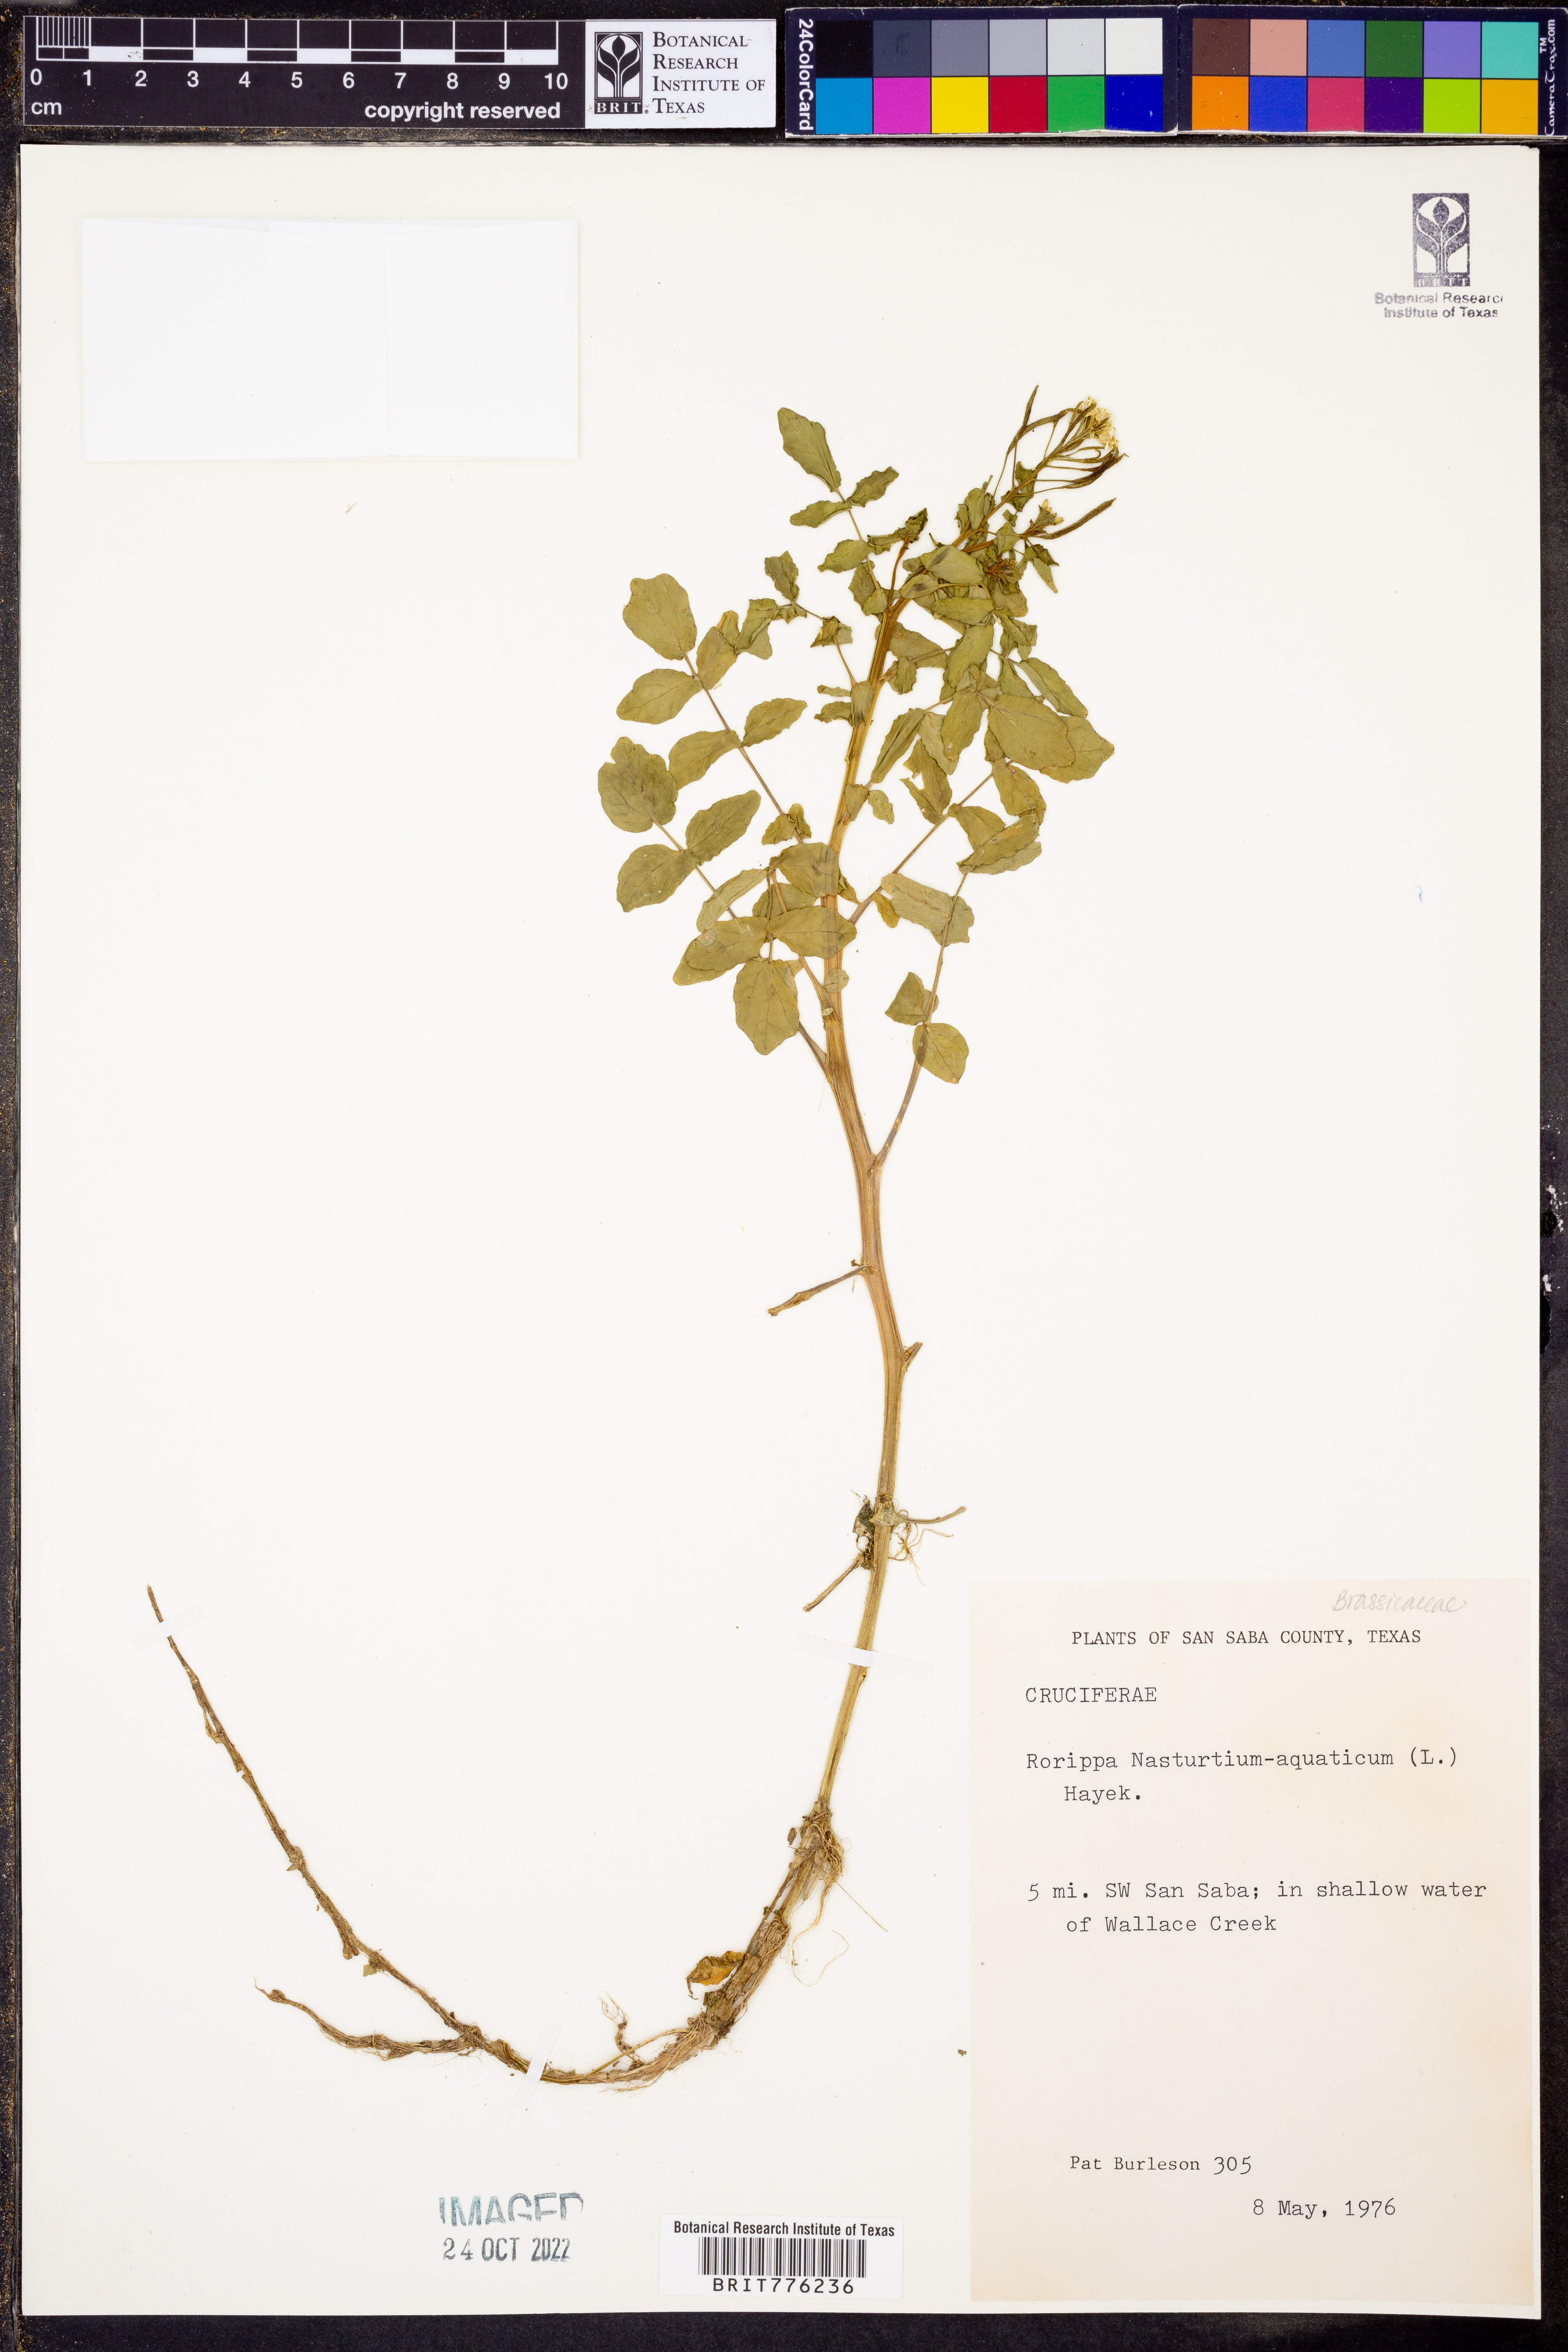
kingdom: Plantae
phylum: Tracheophyta
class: Magnoliopsida
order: Brassicales
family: Brassicaceae
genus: Nasturtium
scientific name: Nasturtium officinale
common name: Watercress
